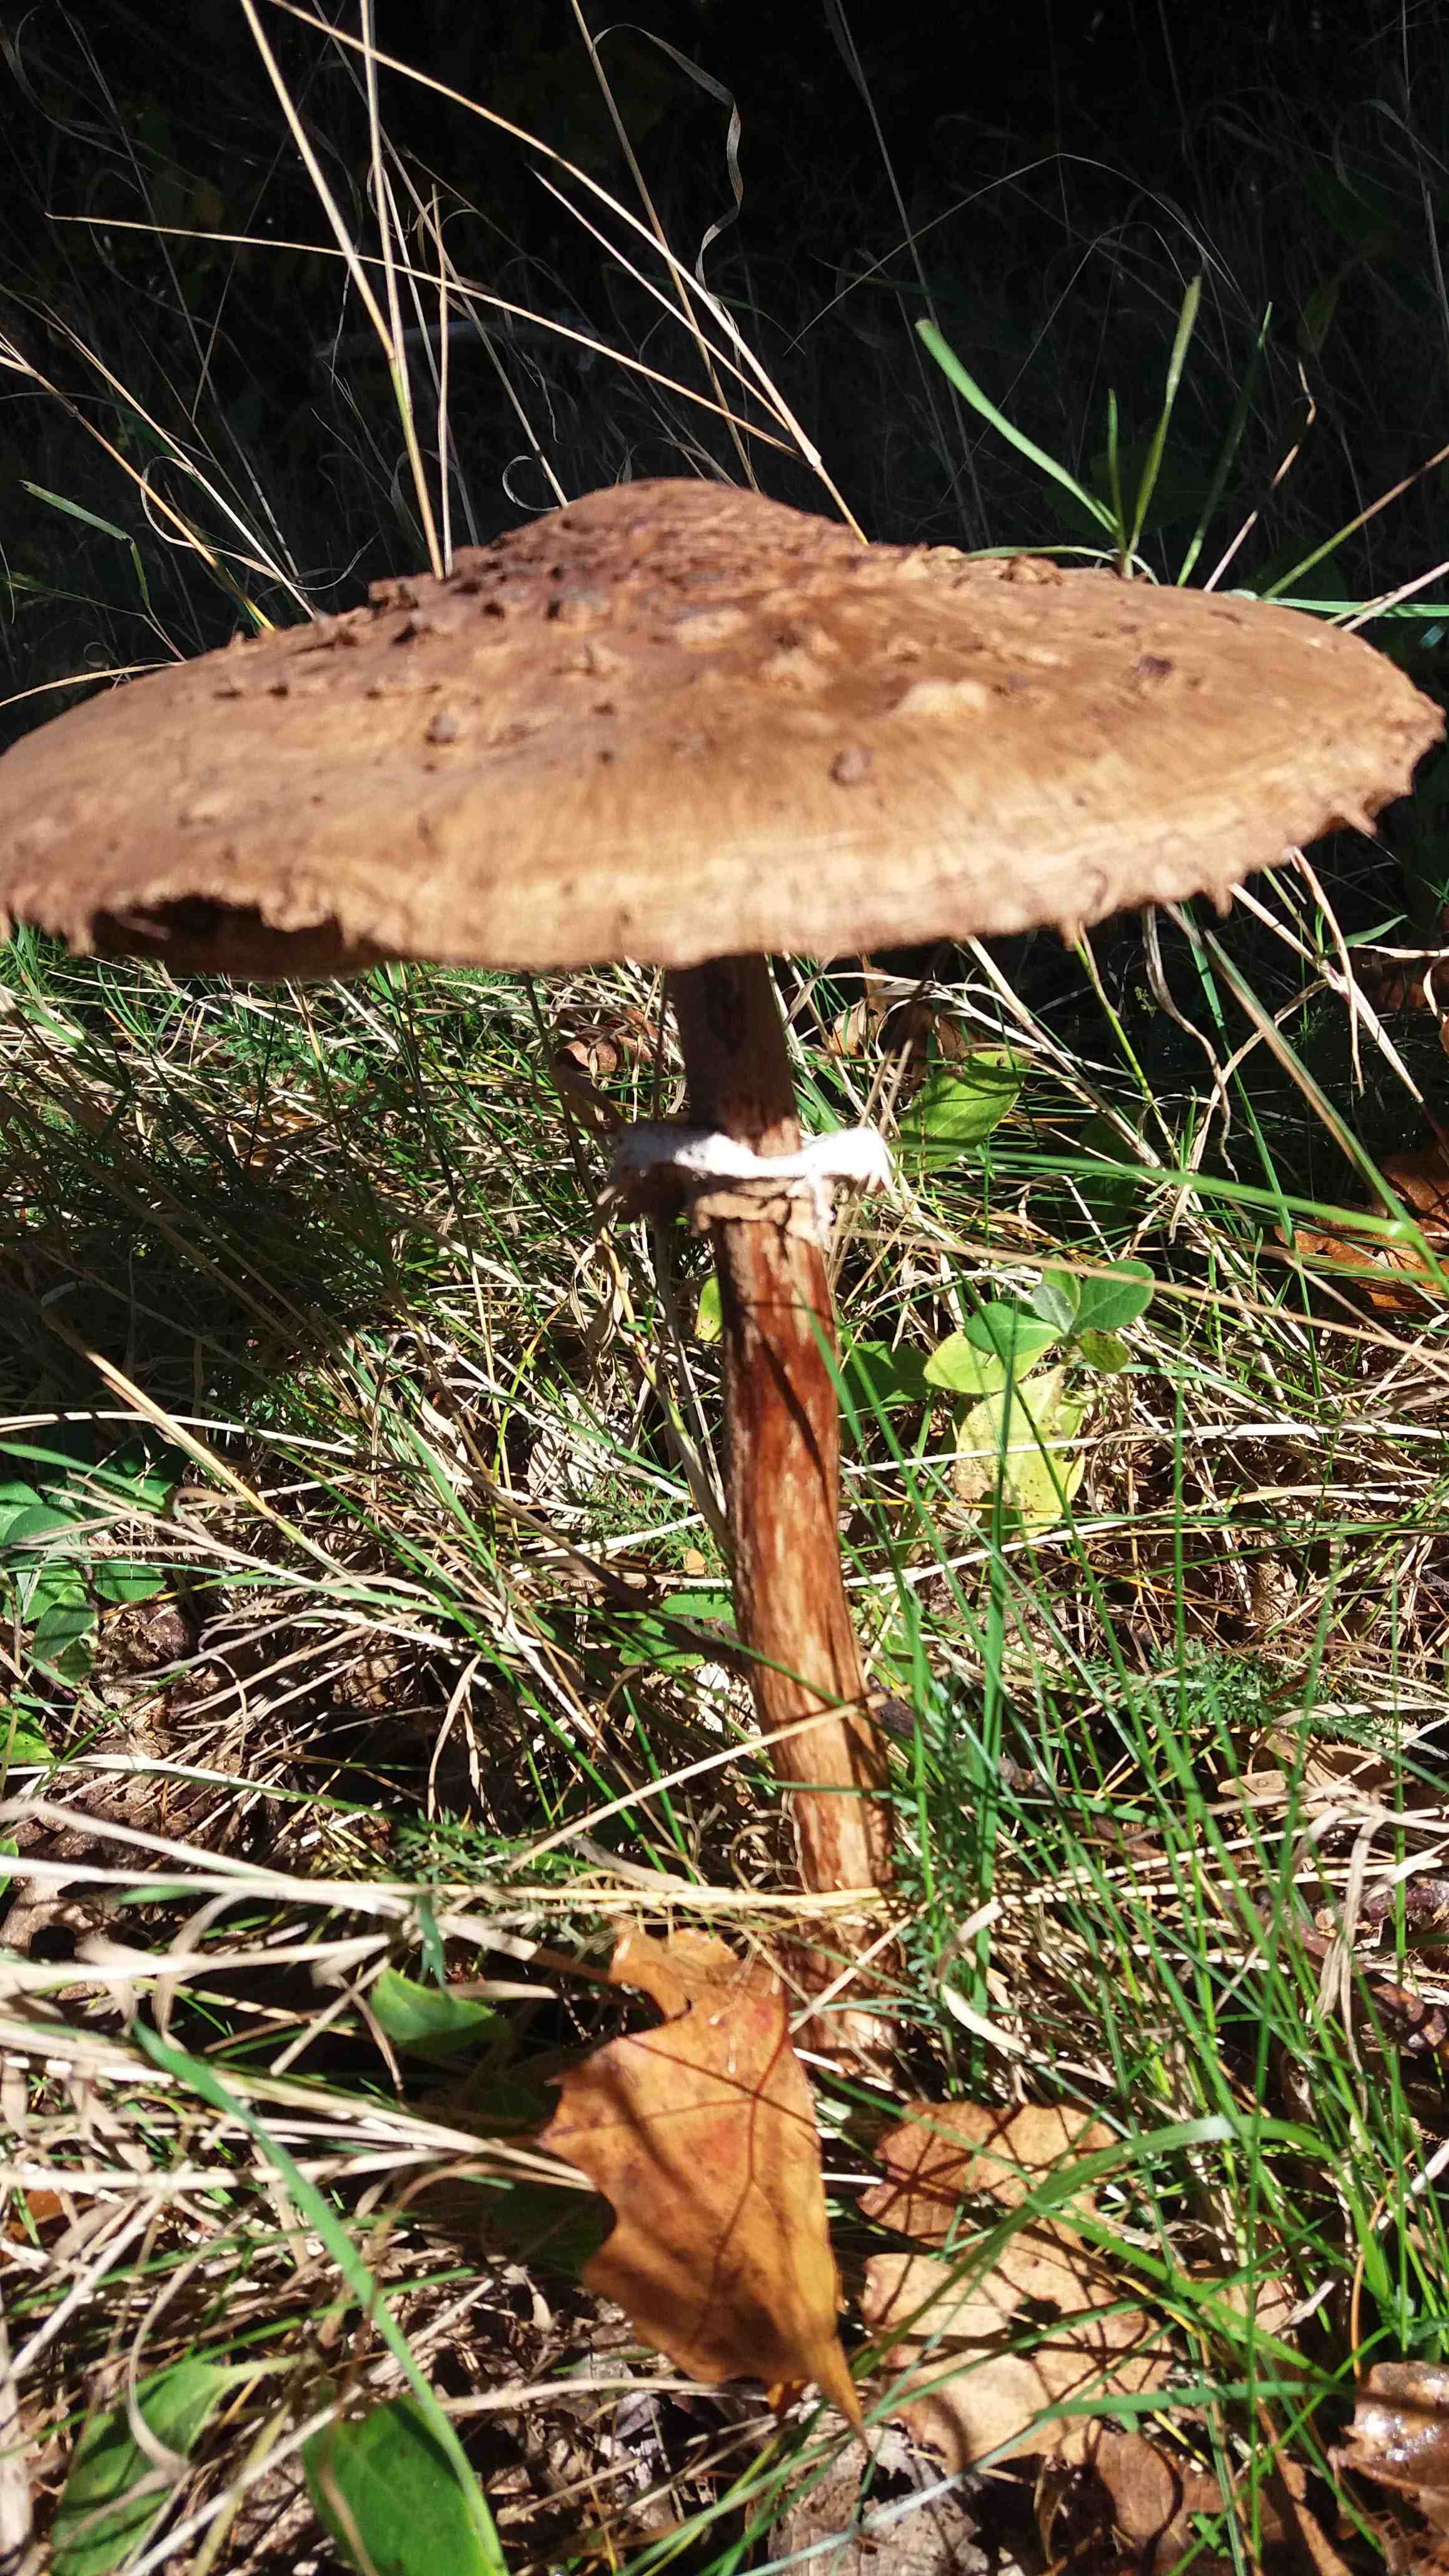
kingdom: Fungi
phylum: Basidiomycota
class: Agaricomycetes
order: Agaricales
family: Agaricaceae
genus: Chlorophyllum
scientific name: Chlorophyllum olivieri
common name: almindelig rabarberhat
